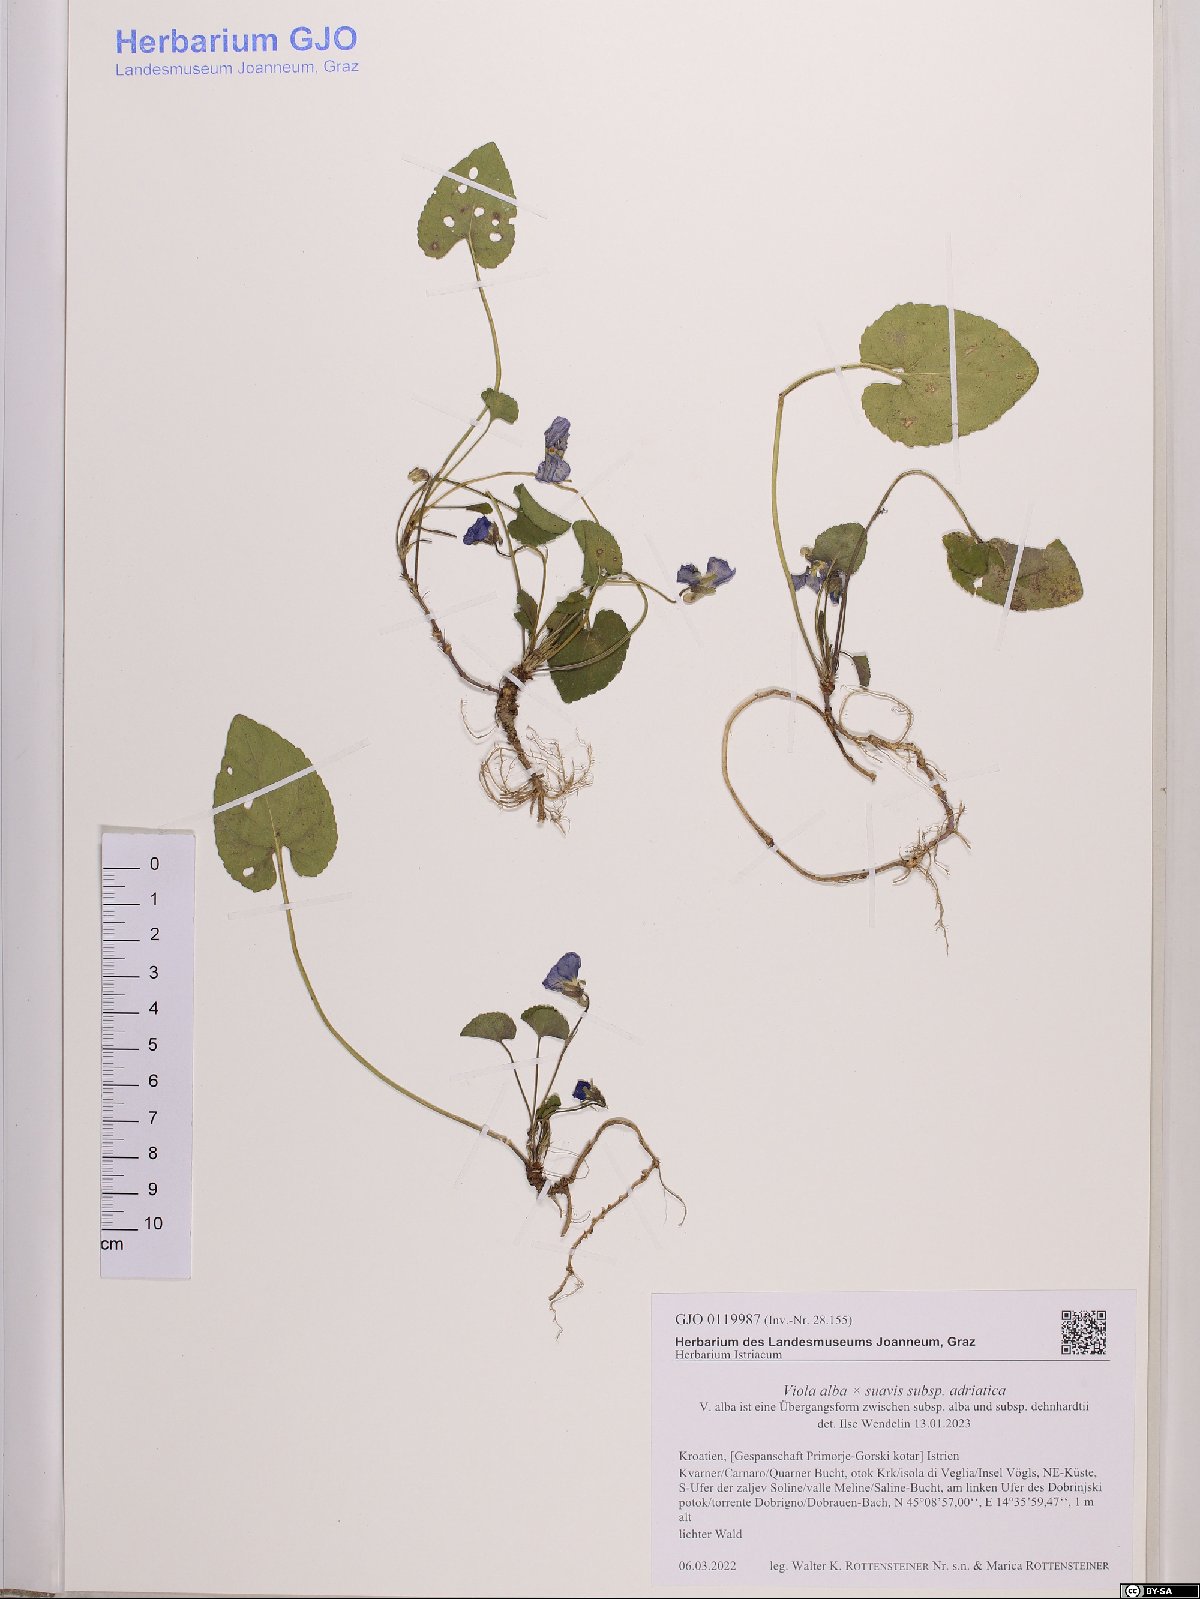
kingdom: Plantae
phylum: Tracheophyta
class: Magnoliopsida
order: Malpighiales
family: Violaceae
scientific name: Violaceae
